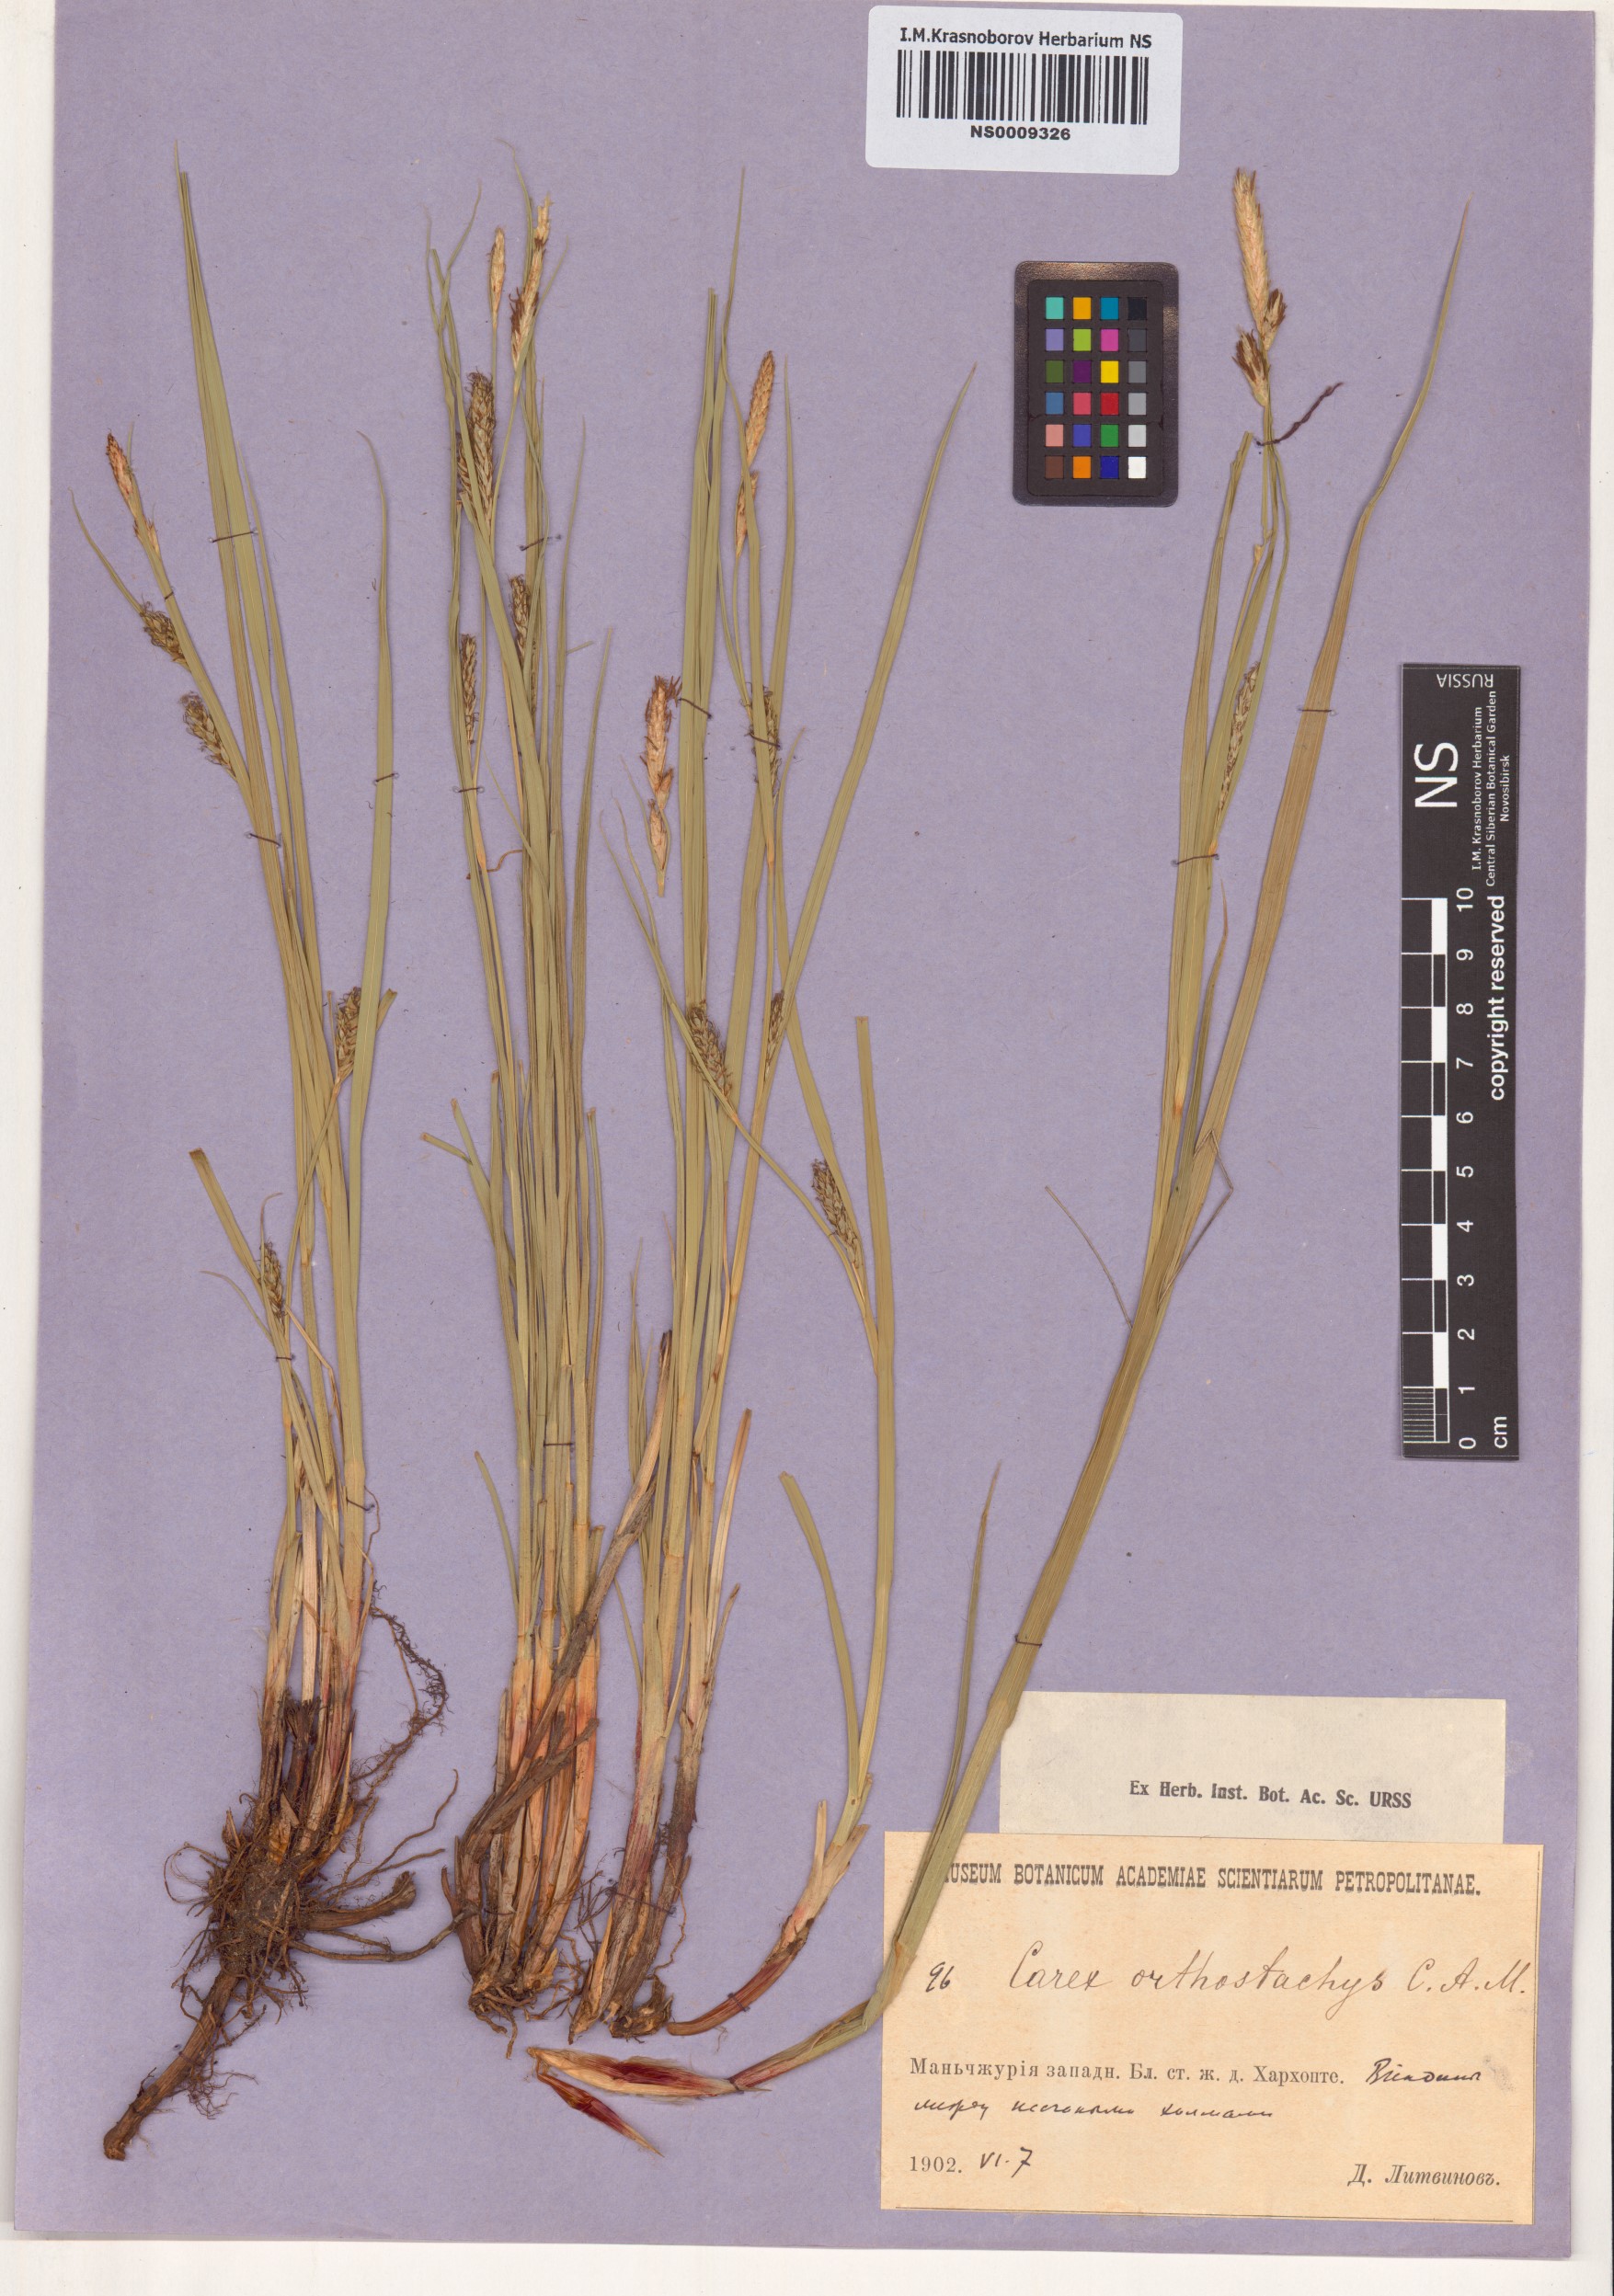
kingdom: Plantae
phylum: Tracheophyta
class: Liliopsida
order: Poales
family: Cyperaceae
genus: Carex
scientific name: Carex atherodes
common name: Wheat sedge
